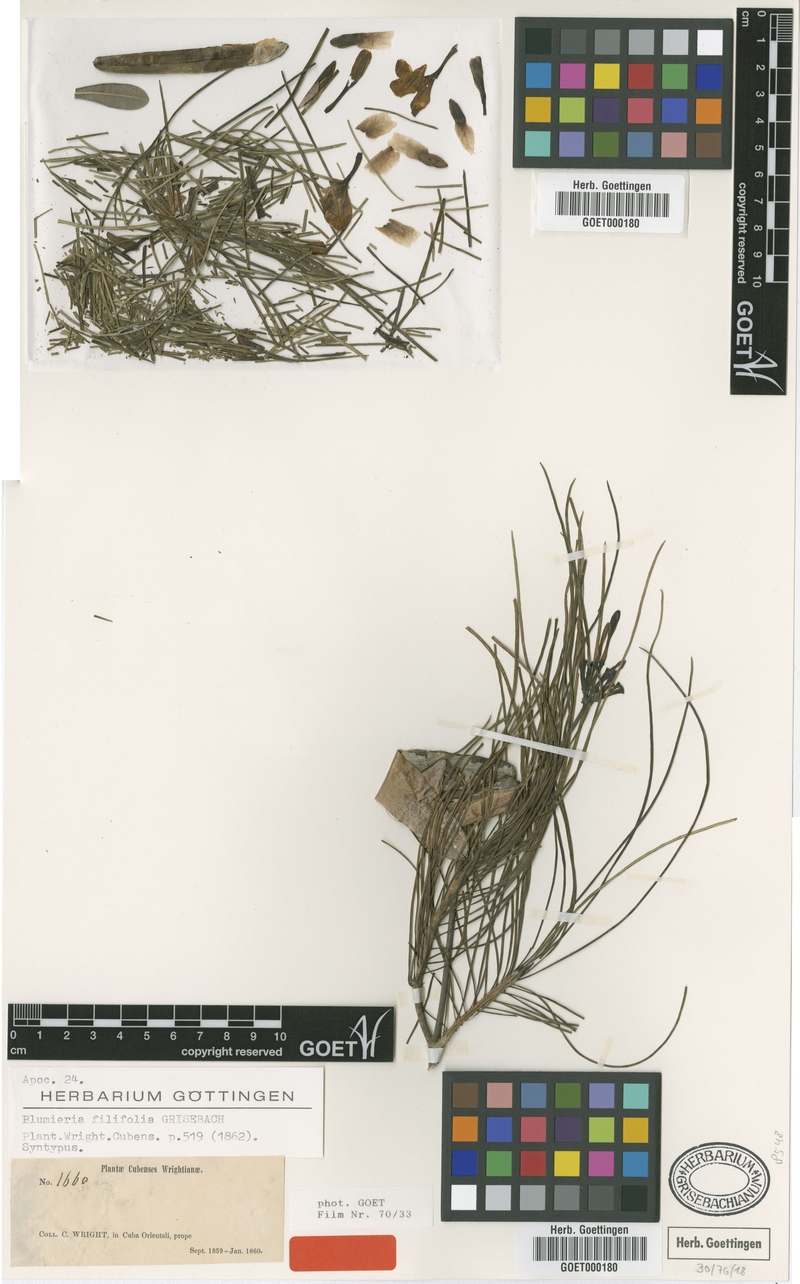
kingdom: Plantae
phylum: Tracheophyta
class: Magnoliopsida
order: Gentianales
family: Apocynaceae
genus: Plumeria
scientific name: Plumeria filifolia
